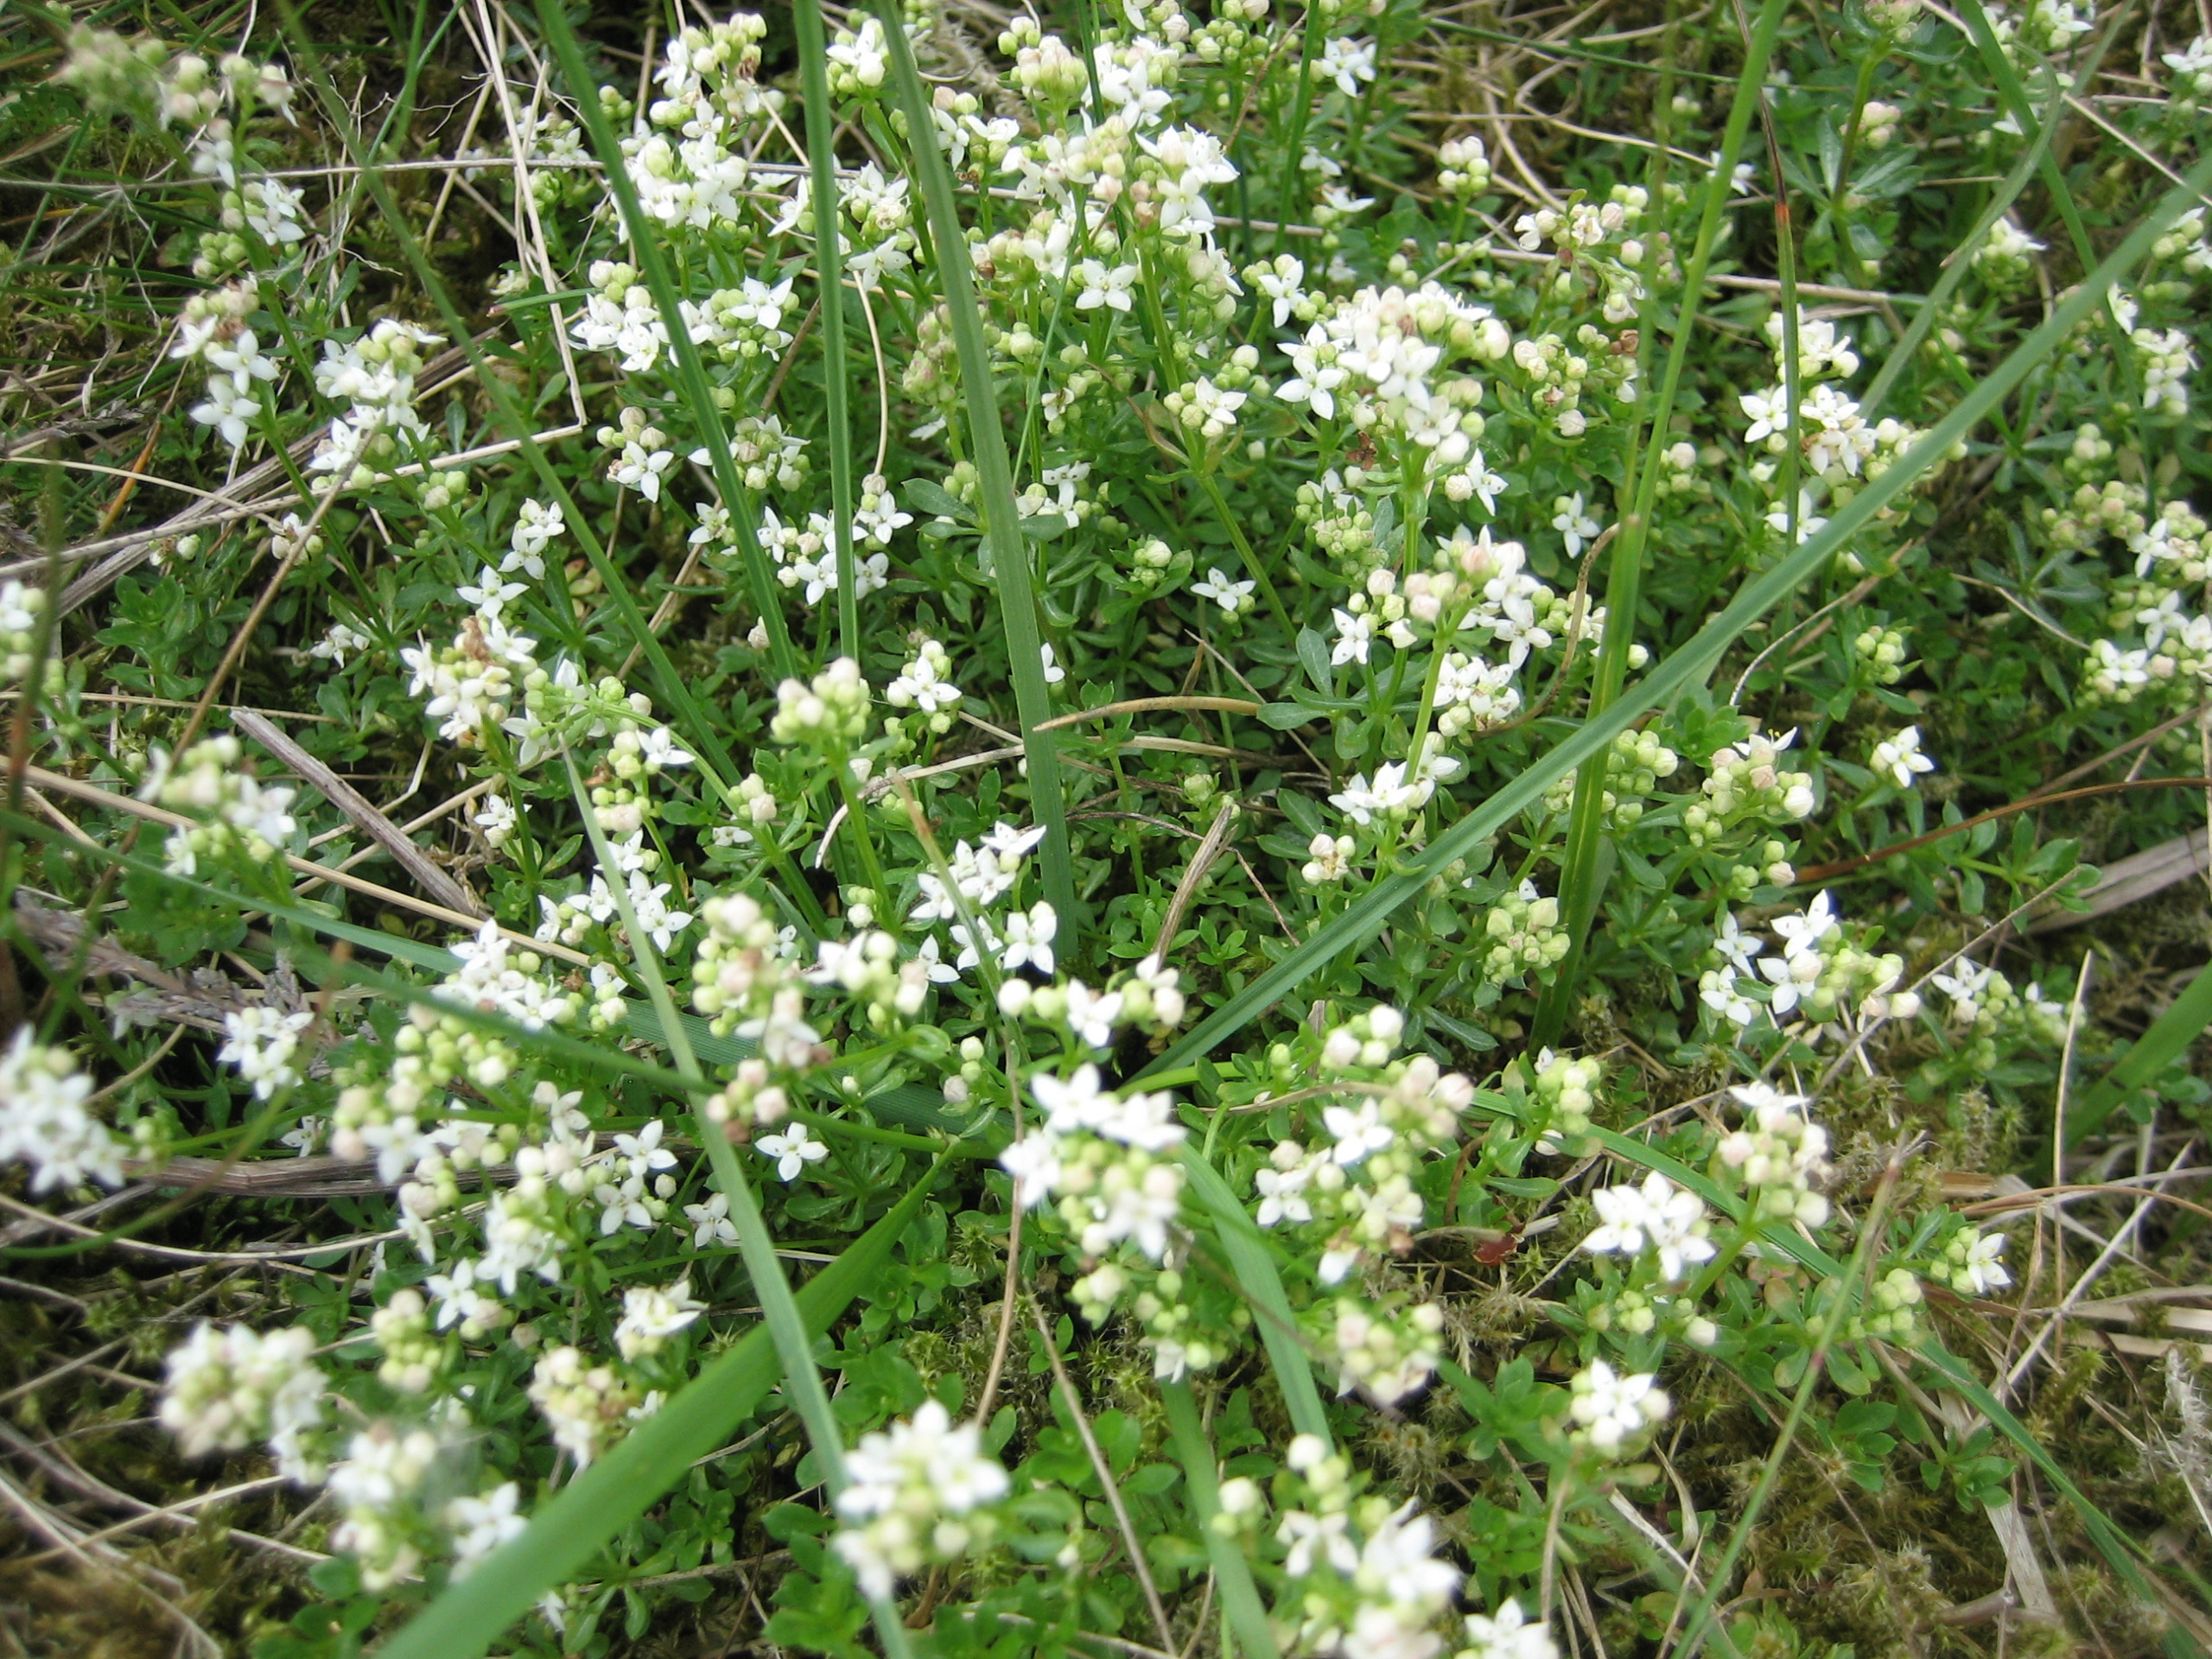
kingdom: Plantae
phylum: Tracheophyta
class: Magnoliopsida
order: Gentianales
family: Rubiaceae
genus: Galium
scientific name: Galium saxatile
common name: Lyng-snerre
